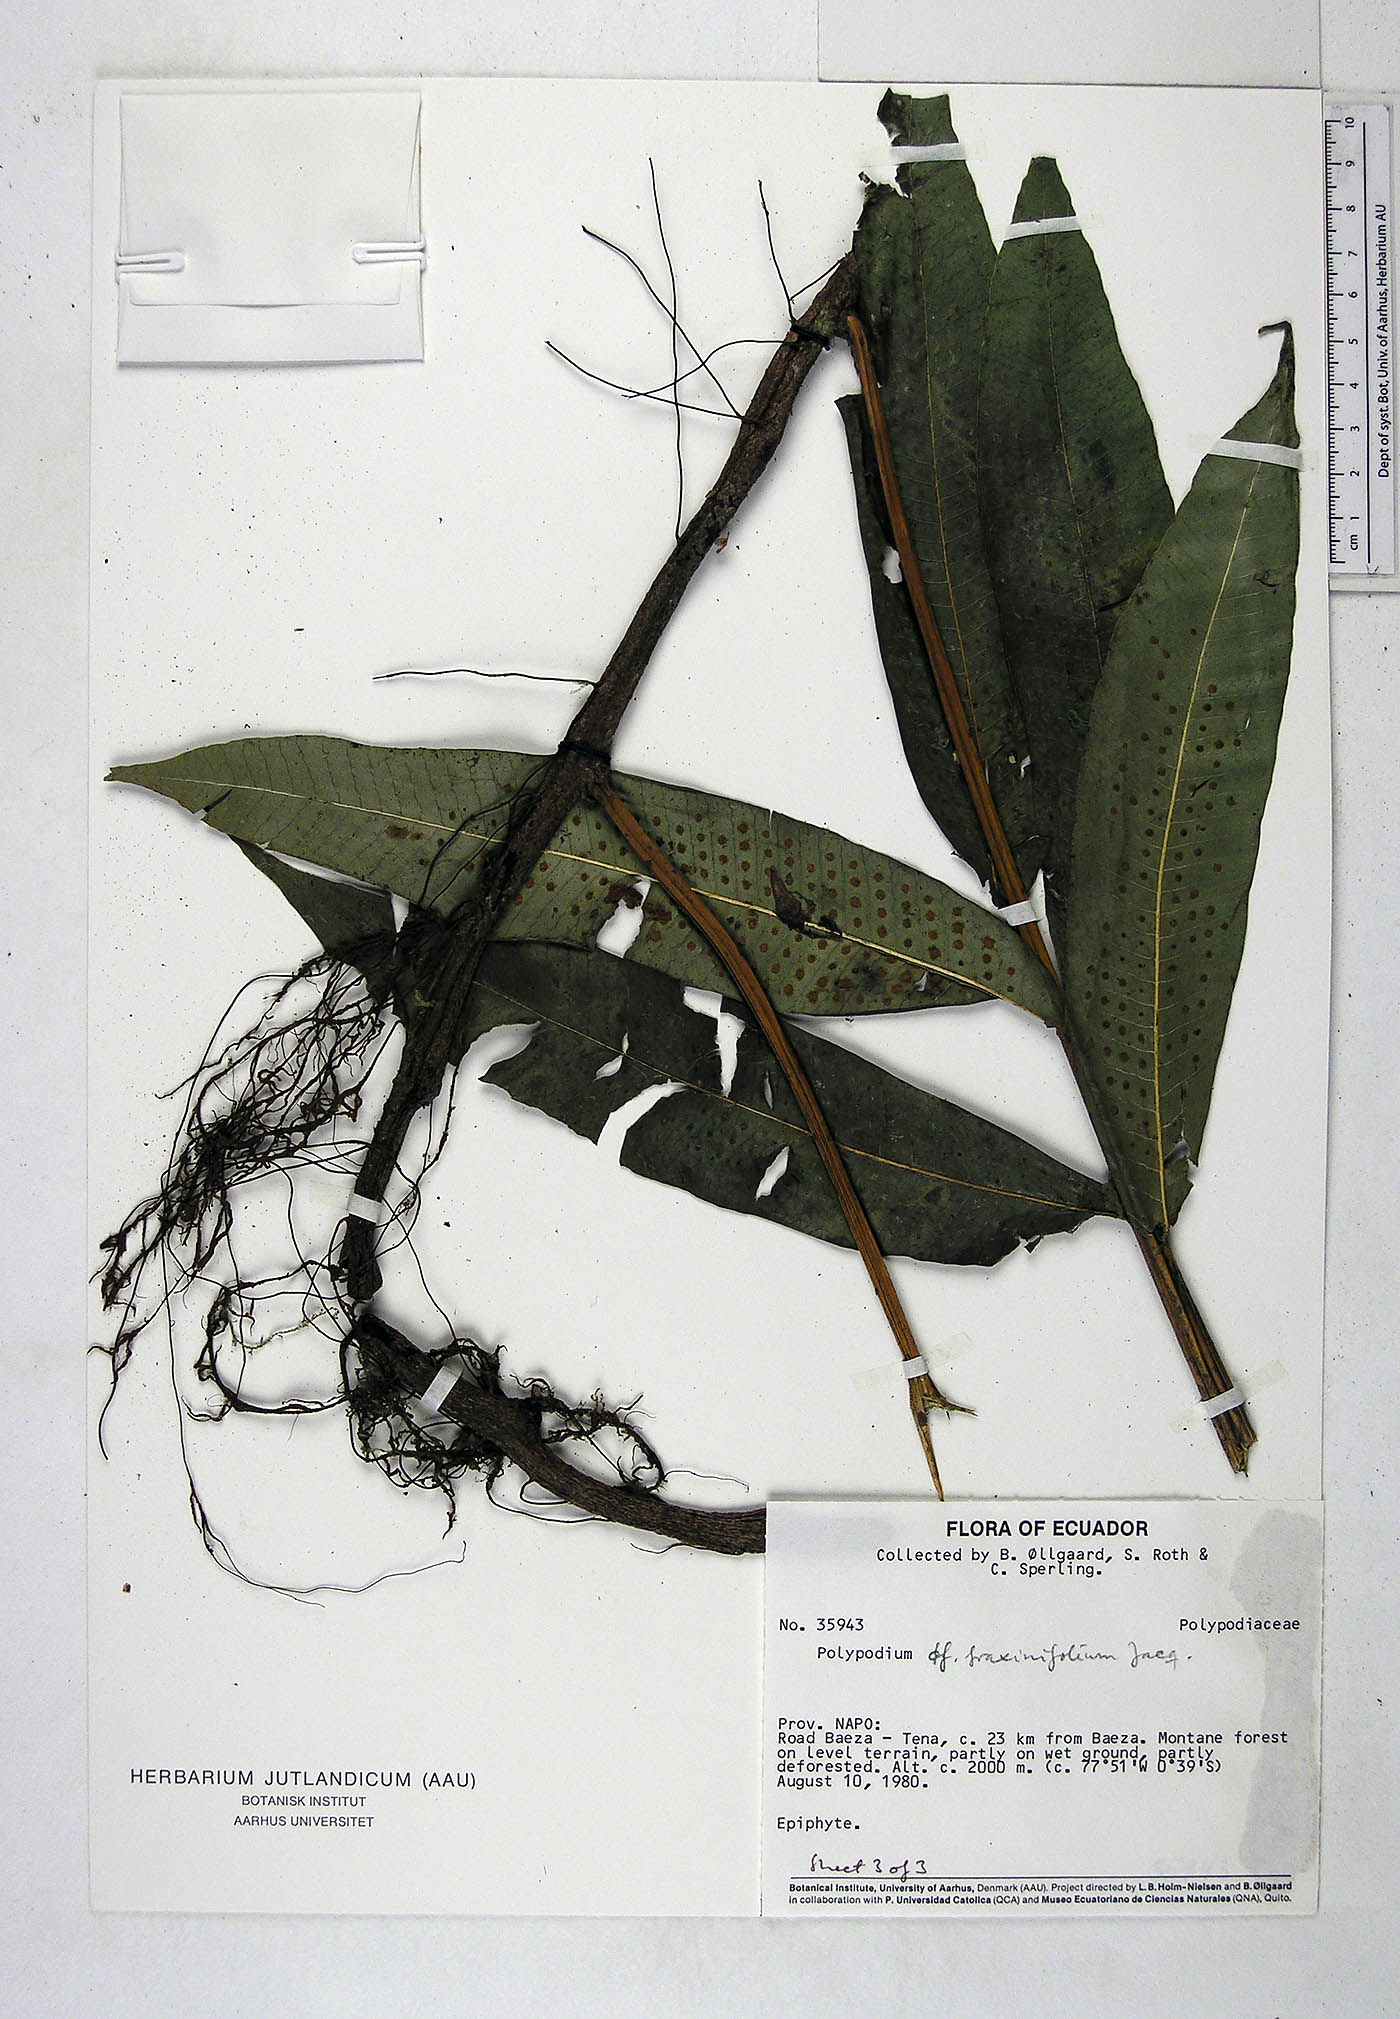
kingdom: Plantae
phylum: Tracheophyta
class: Polypodiopsida
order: Polypodiales
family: Polypodiaceae
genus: Serpocaulon
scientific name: Serpocaulon fraxinifolium
